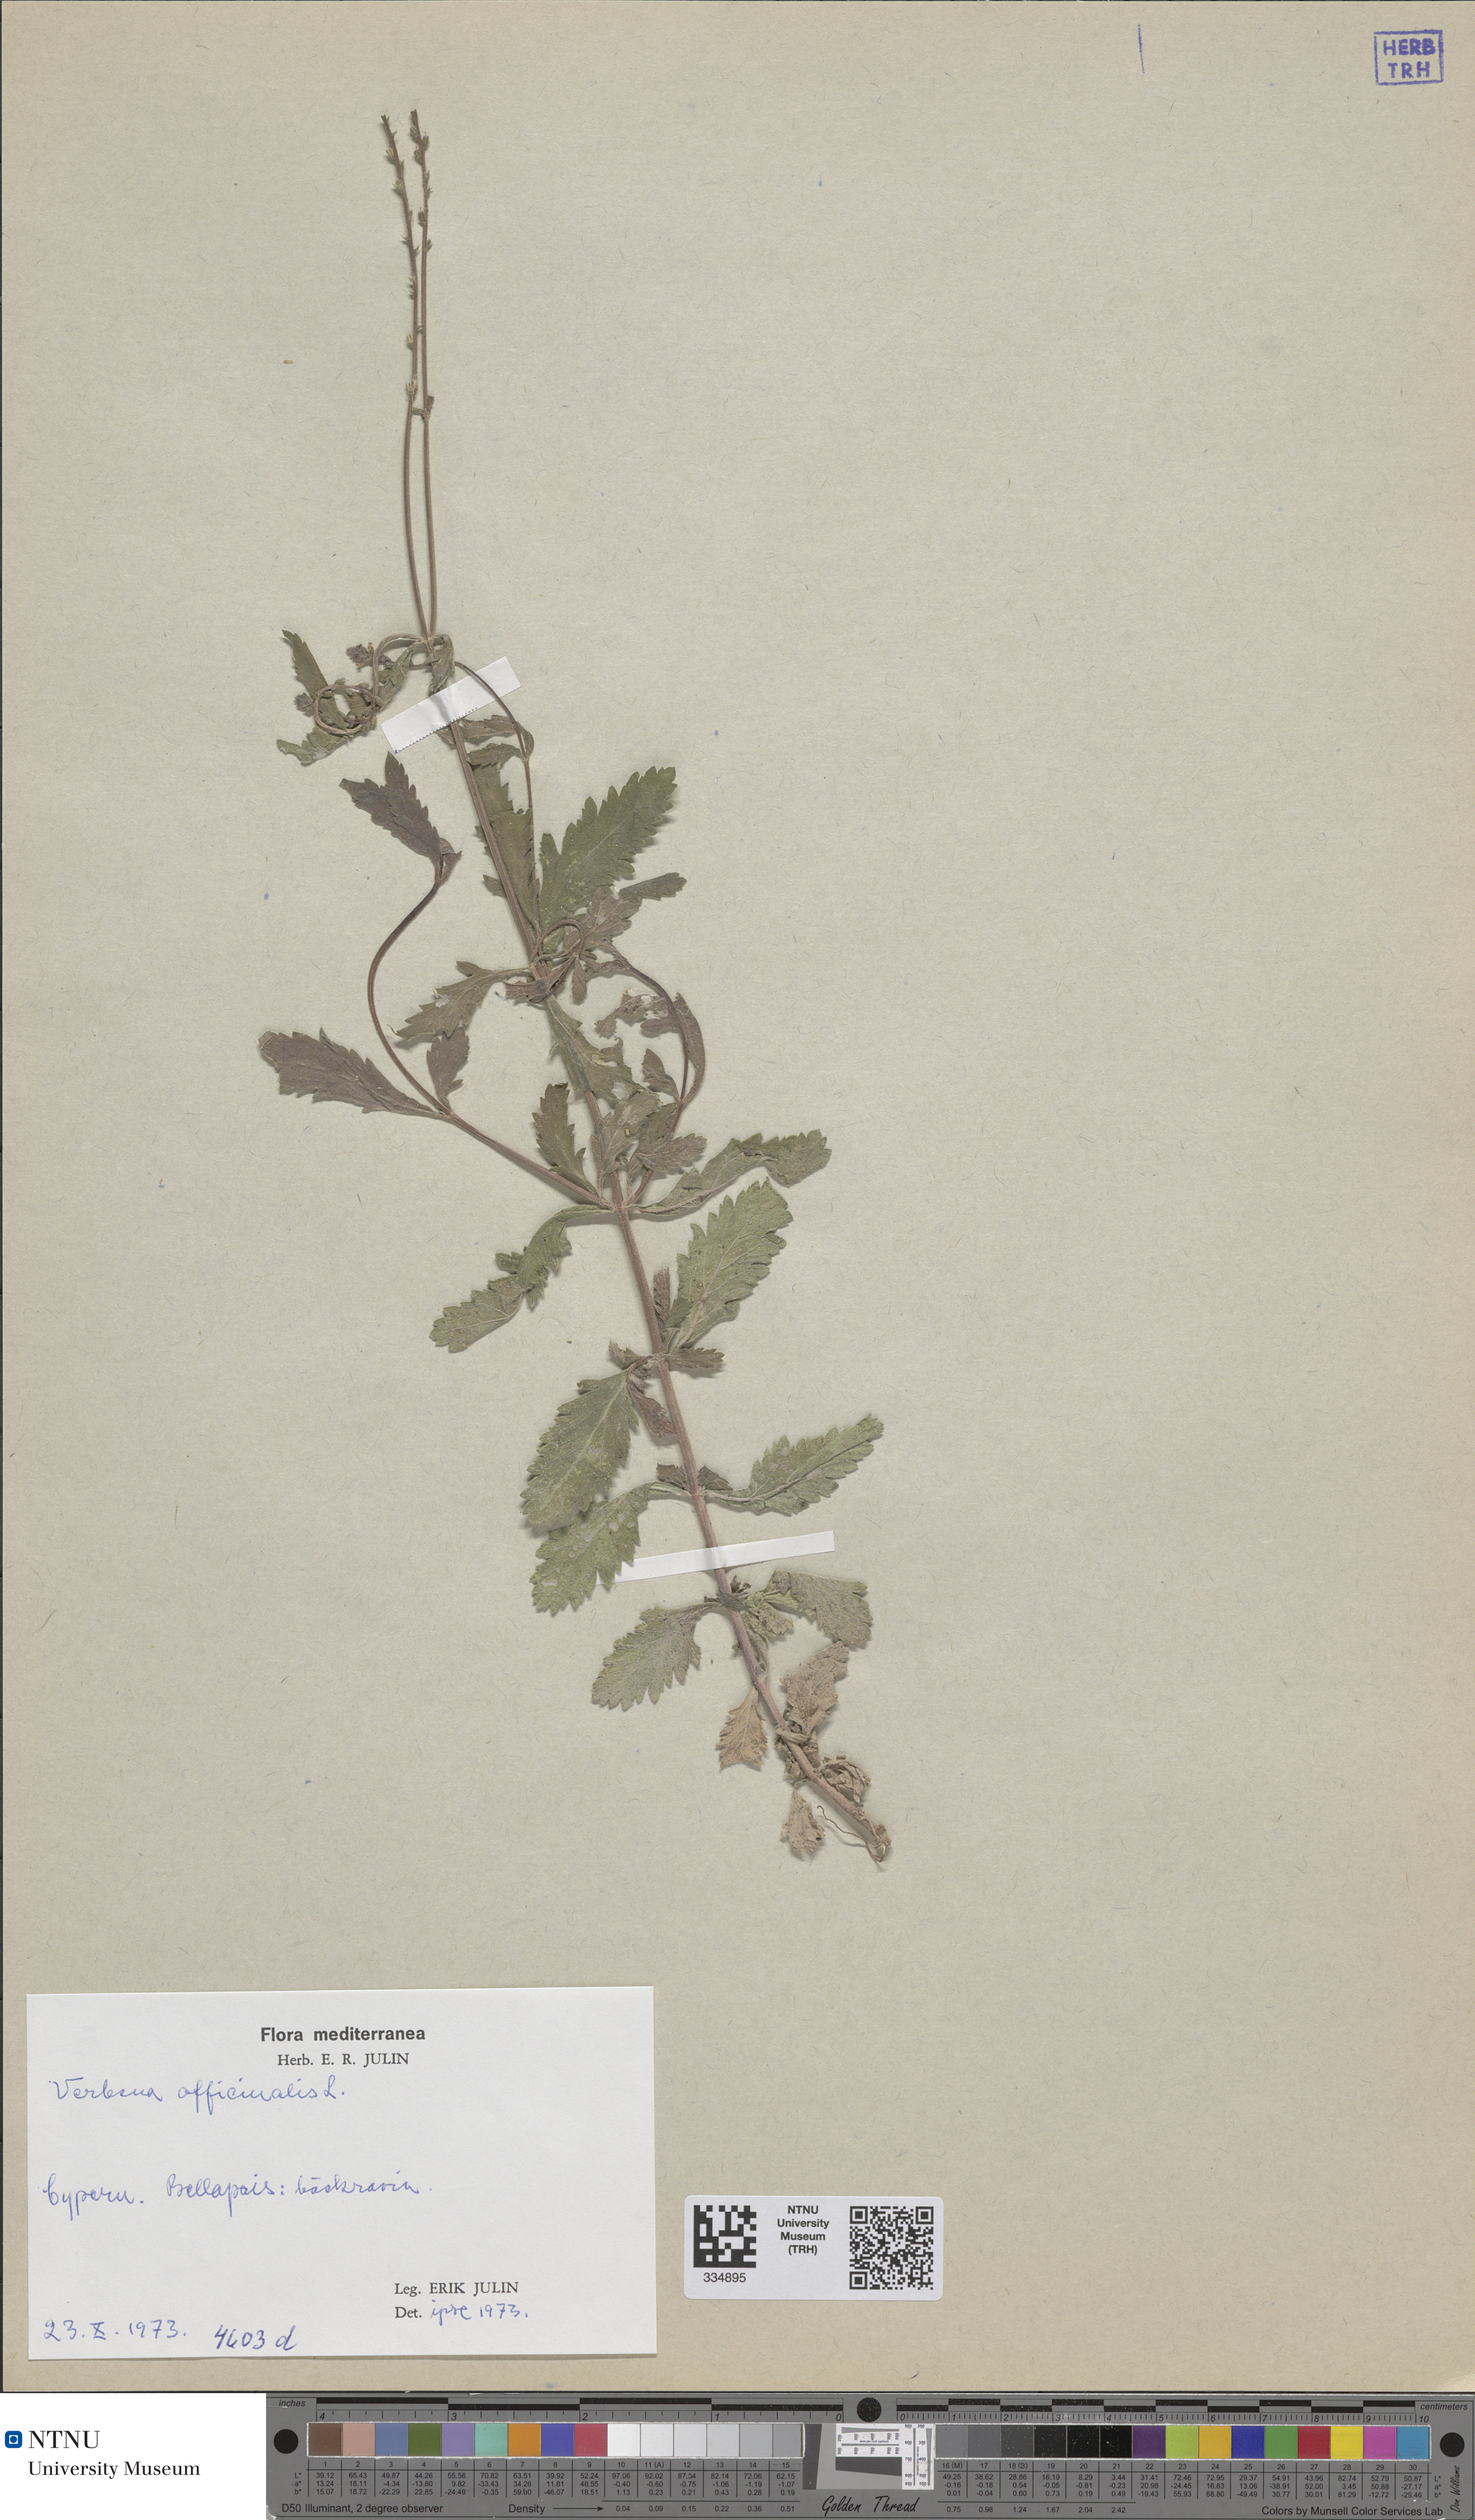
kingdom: Plantae
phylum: Tracheophyta
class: Magnoliopsida
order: Lamiales
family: Verbenaceae
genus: Verbena
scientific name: Verbena officinalis
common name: Vervain
